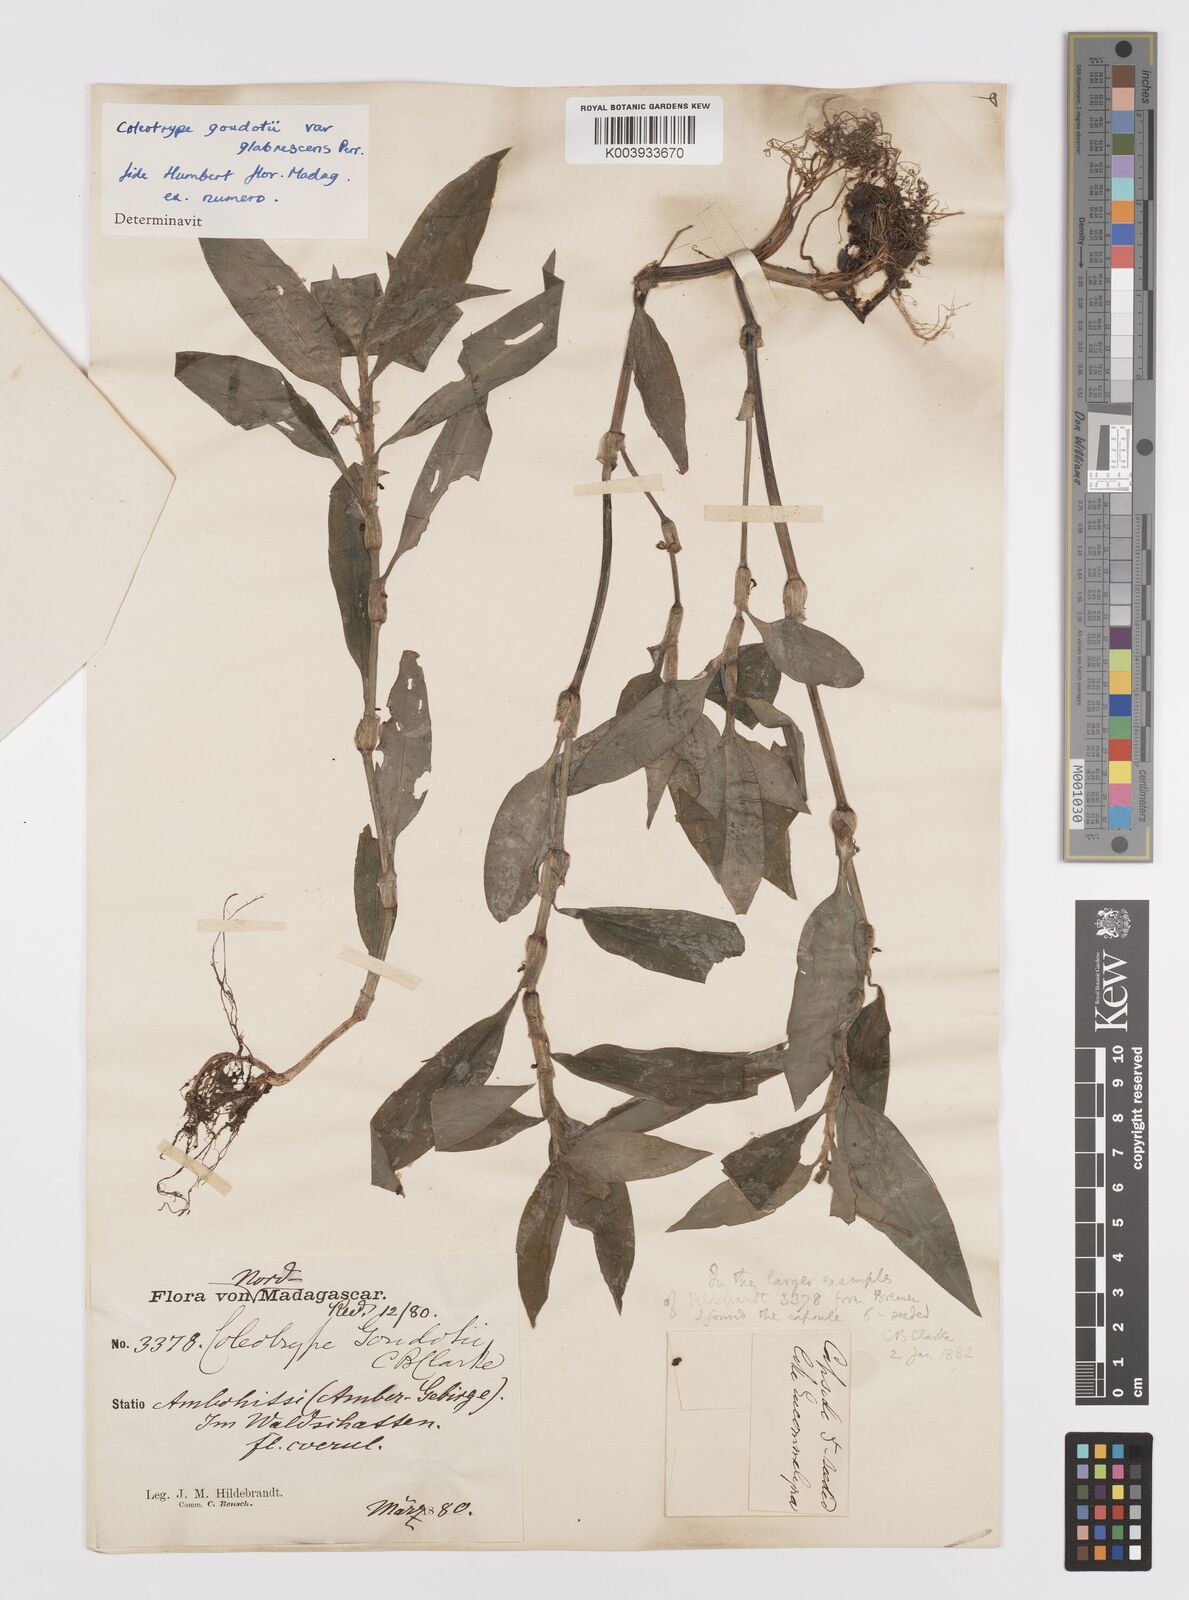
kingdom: Plantae
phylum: Tracheophyta
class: Liliopsida
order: Commelinales
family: Commelinaceae
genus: Coleotrype
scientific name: Coleotrype goudotii
